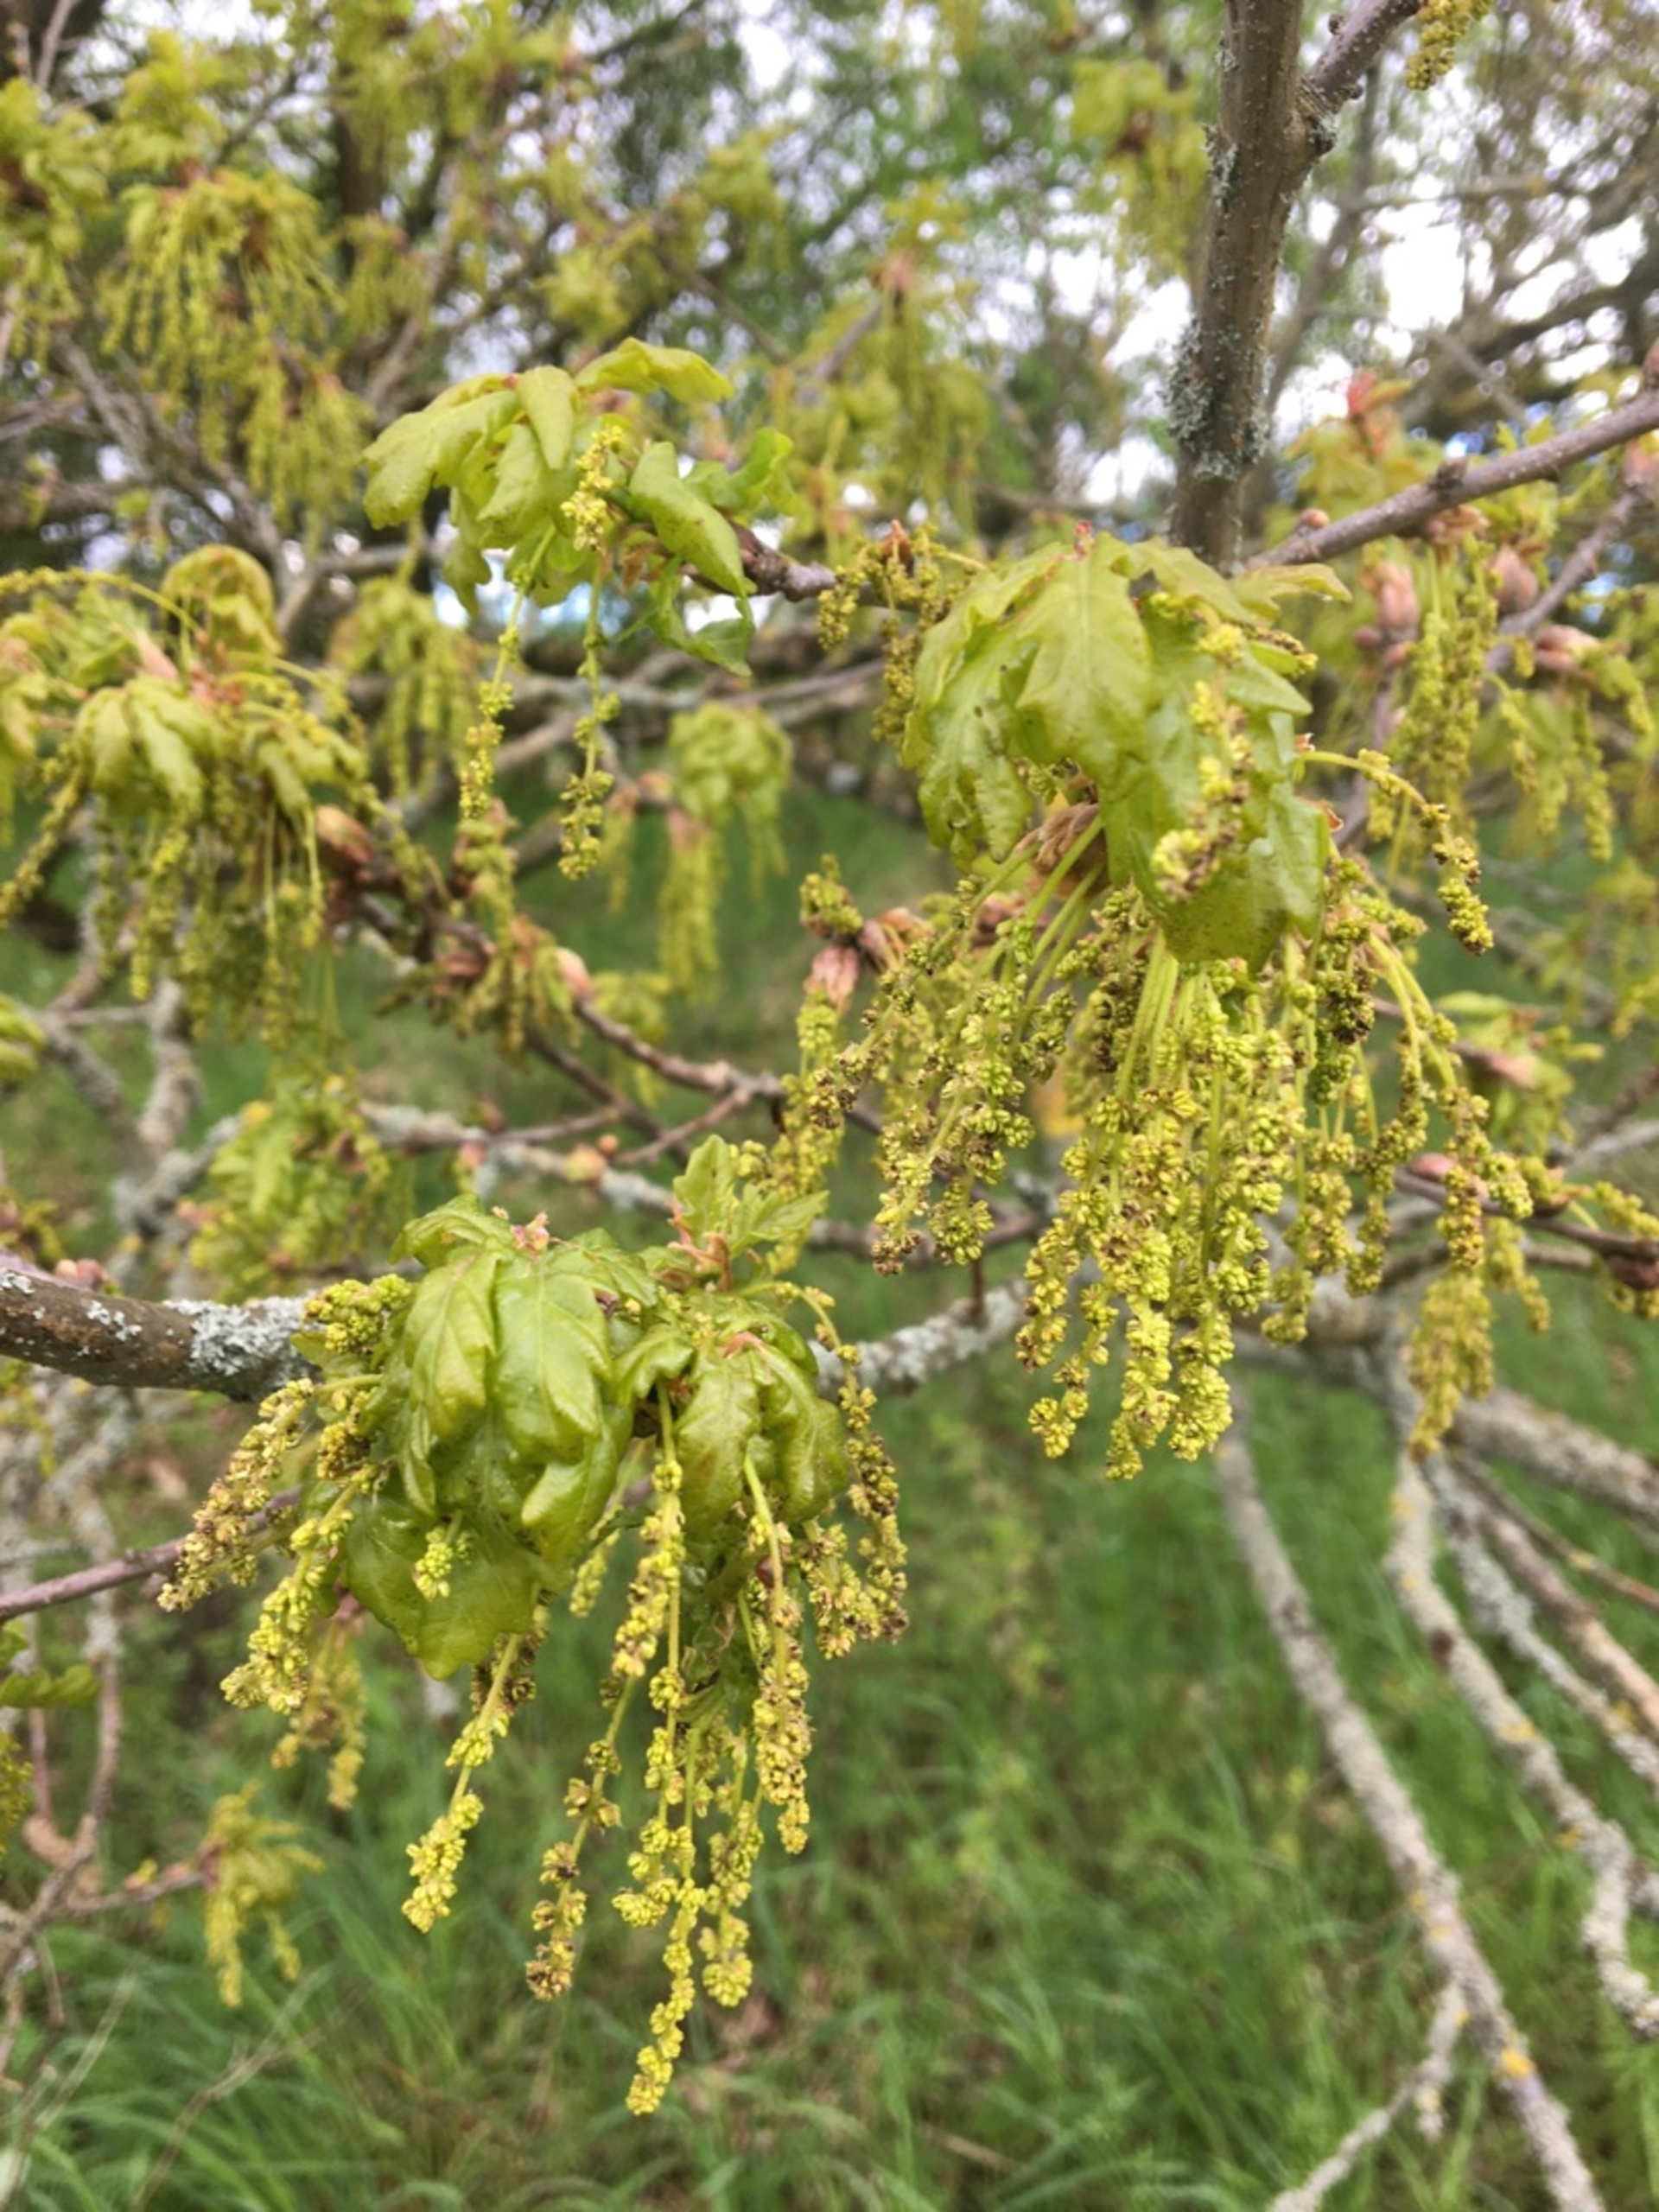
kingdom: Plantae
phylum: Tracheophyta
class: Magnoliopsida
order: Fagales
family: Fagaceae
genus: Quercus
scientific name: Quercus robur
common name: Stilk-eg/almindelig eg
